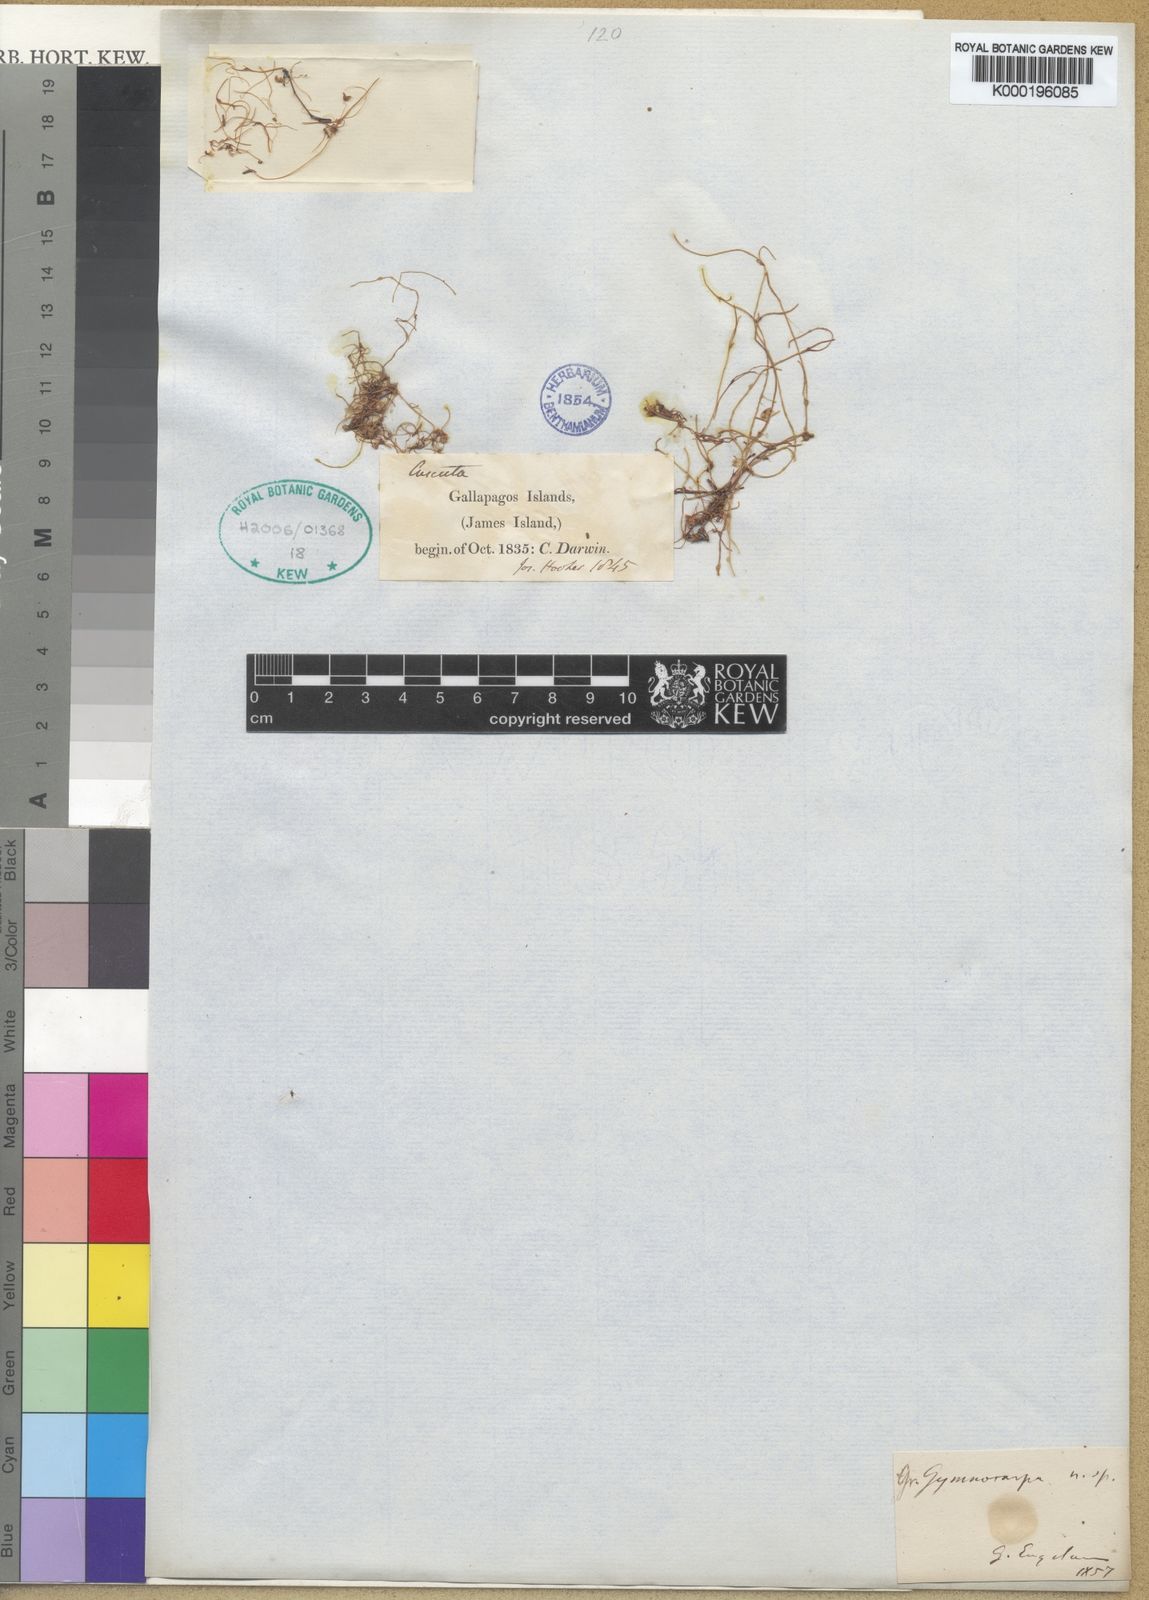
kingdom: Plantae
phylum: Tracheophyta
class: Magnoliopsida
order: Solanales
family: Convolvulaceae
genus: Cuscuta
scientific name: Cuscuta gymnocarpa
